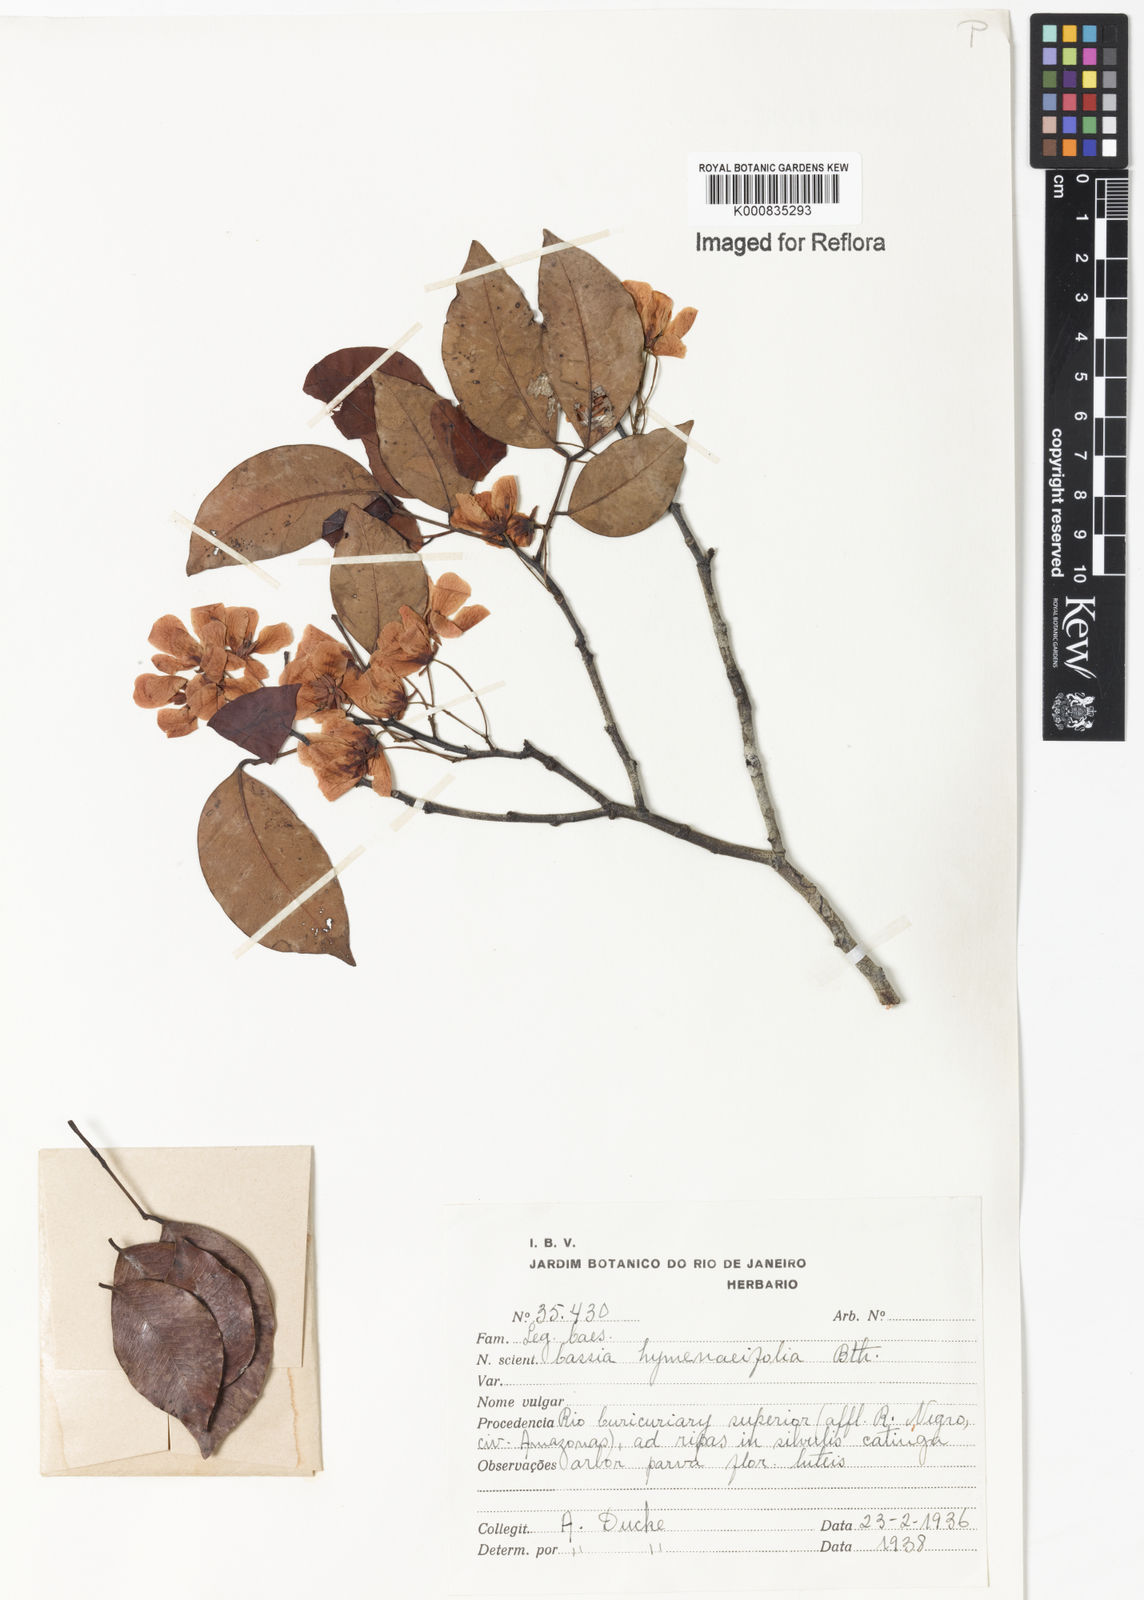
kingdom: Plantae
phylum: Tracheophyta
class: Magnoliopsida
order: Fabales
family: Fabaceae
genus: Chamaecrista
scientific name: Chamaecrista hymenaeifolia
